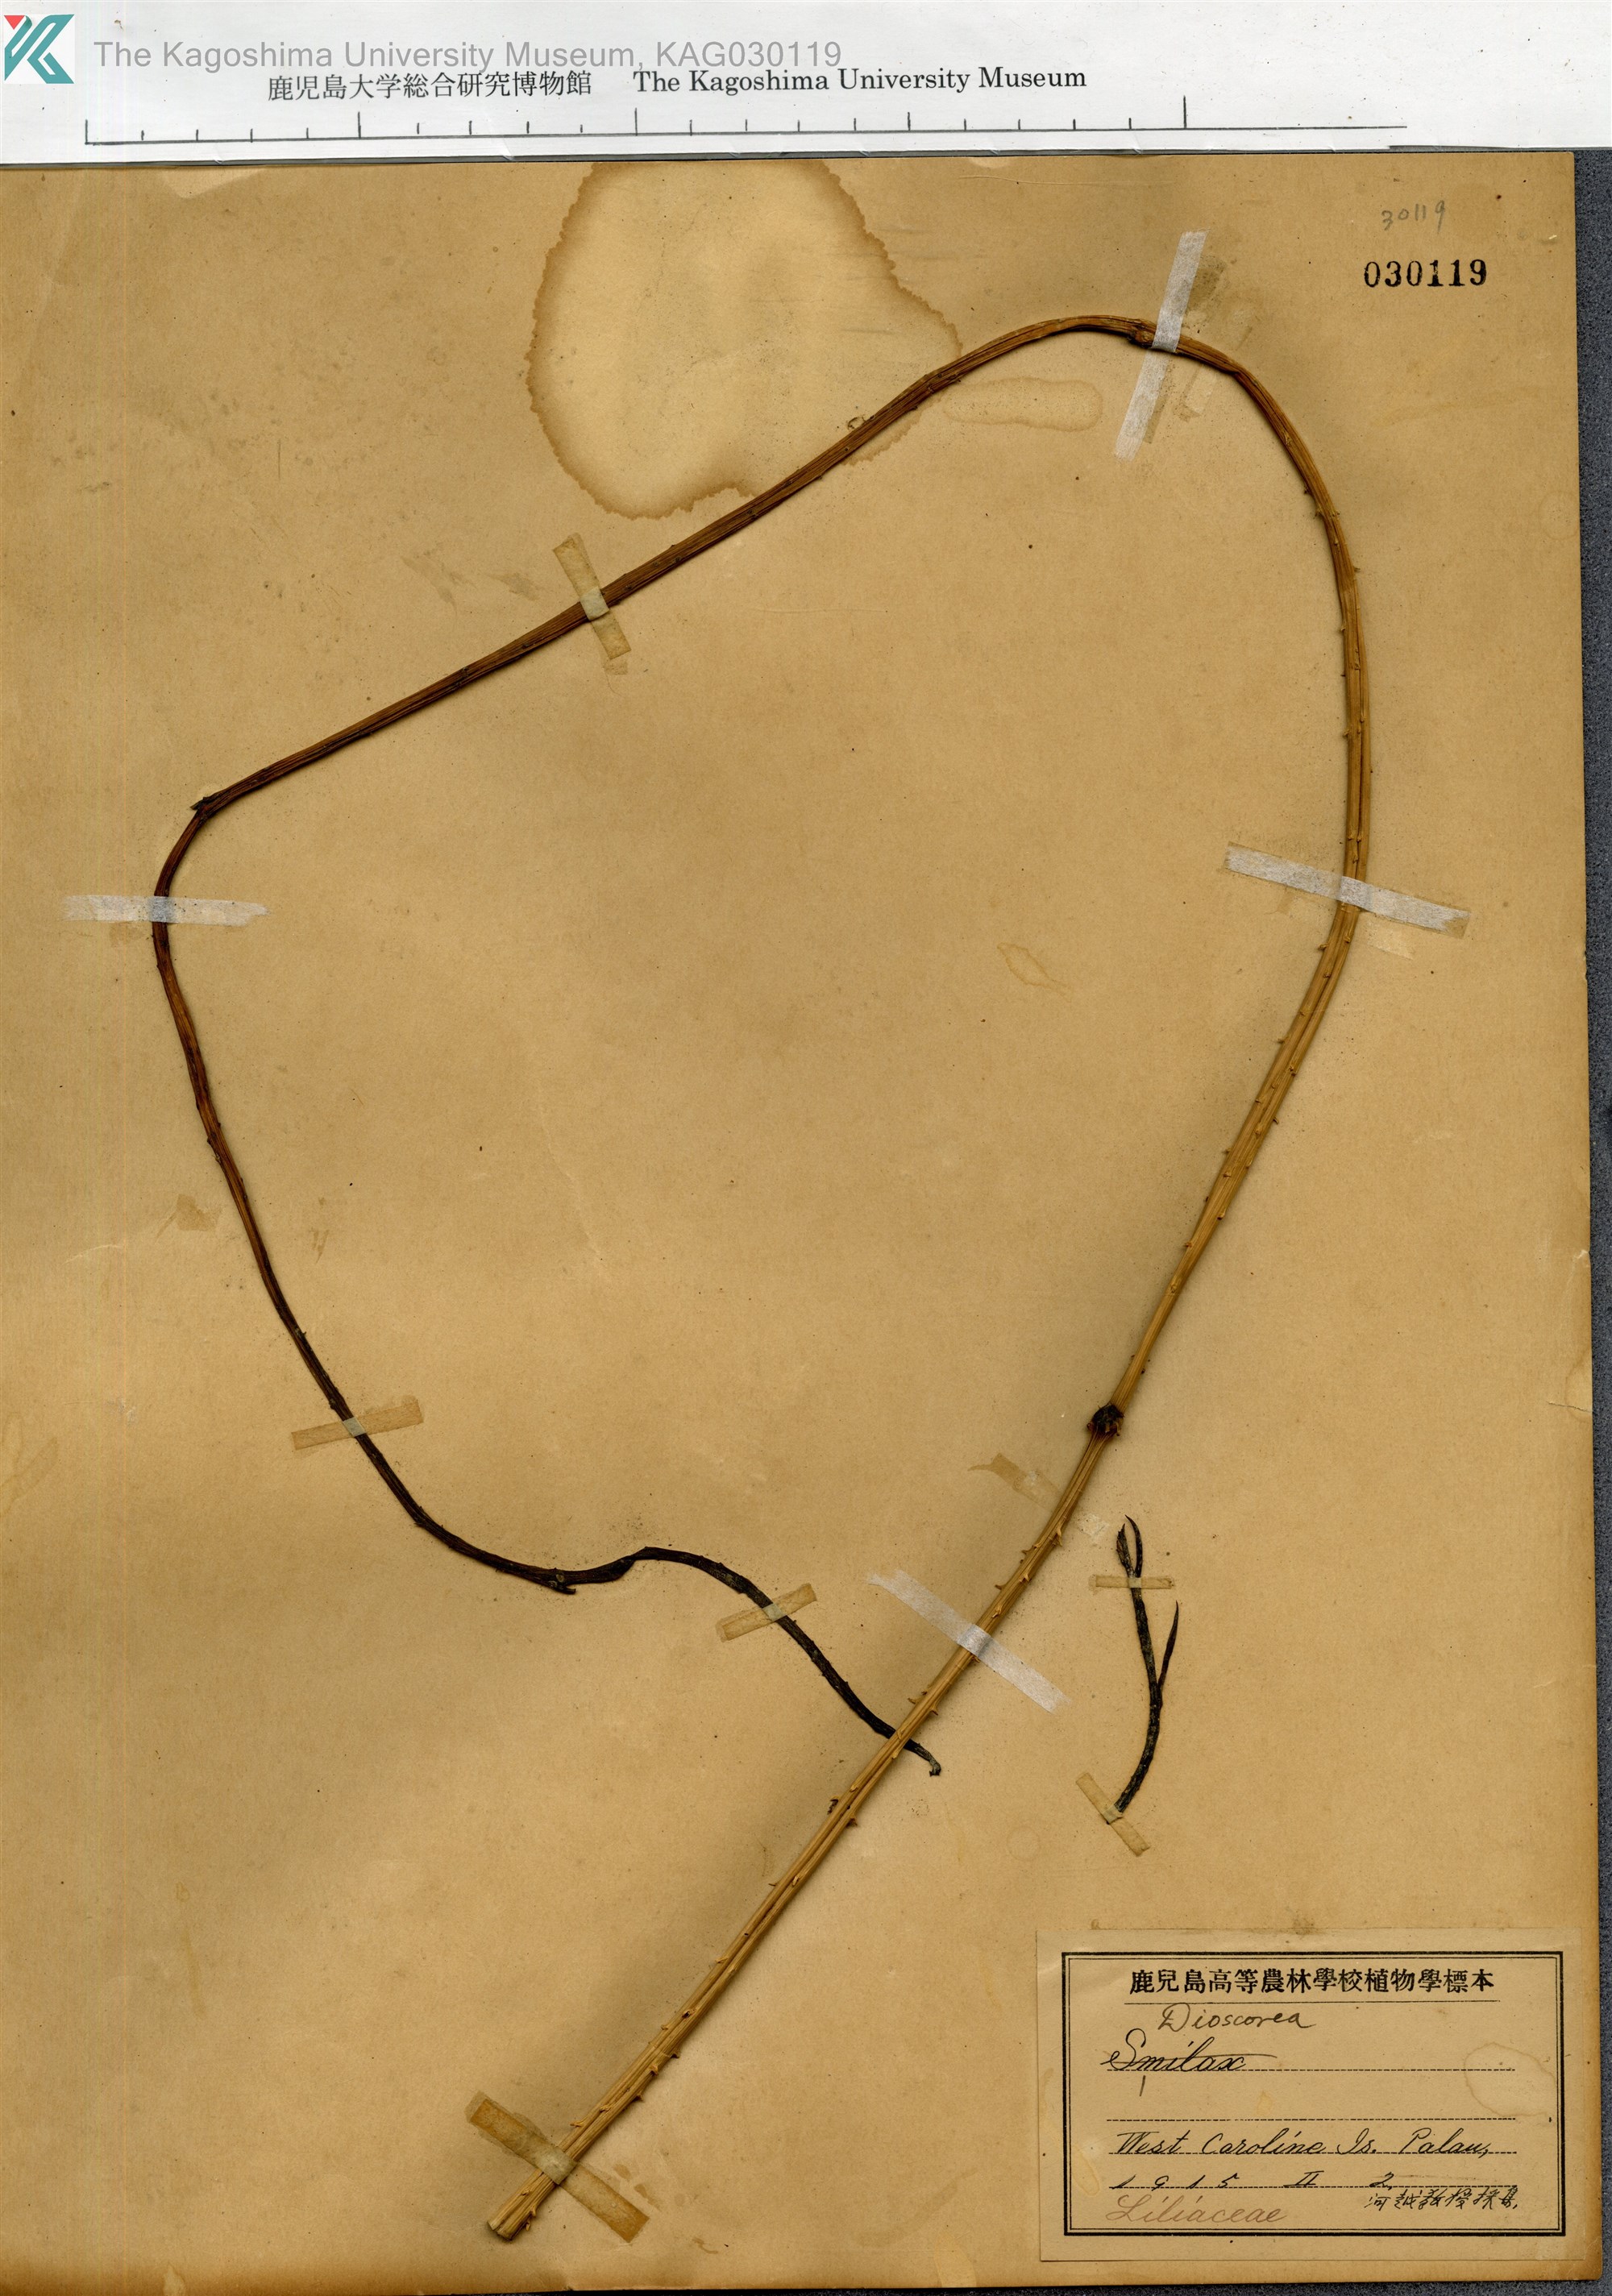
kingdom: Plantae
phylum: Tracheophyta
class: Liliopsida
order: Liliales
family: Smilacaceae
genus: Smilax
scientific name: Smilax
